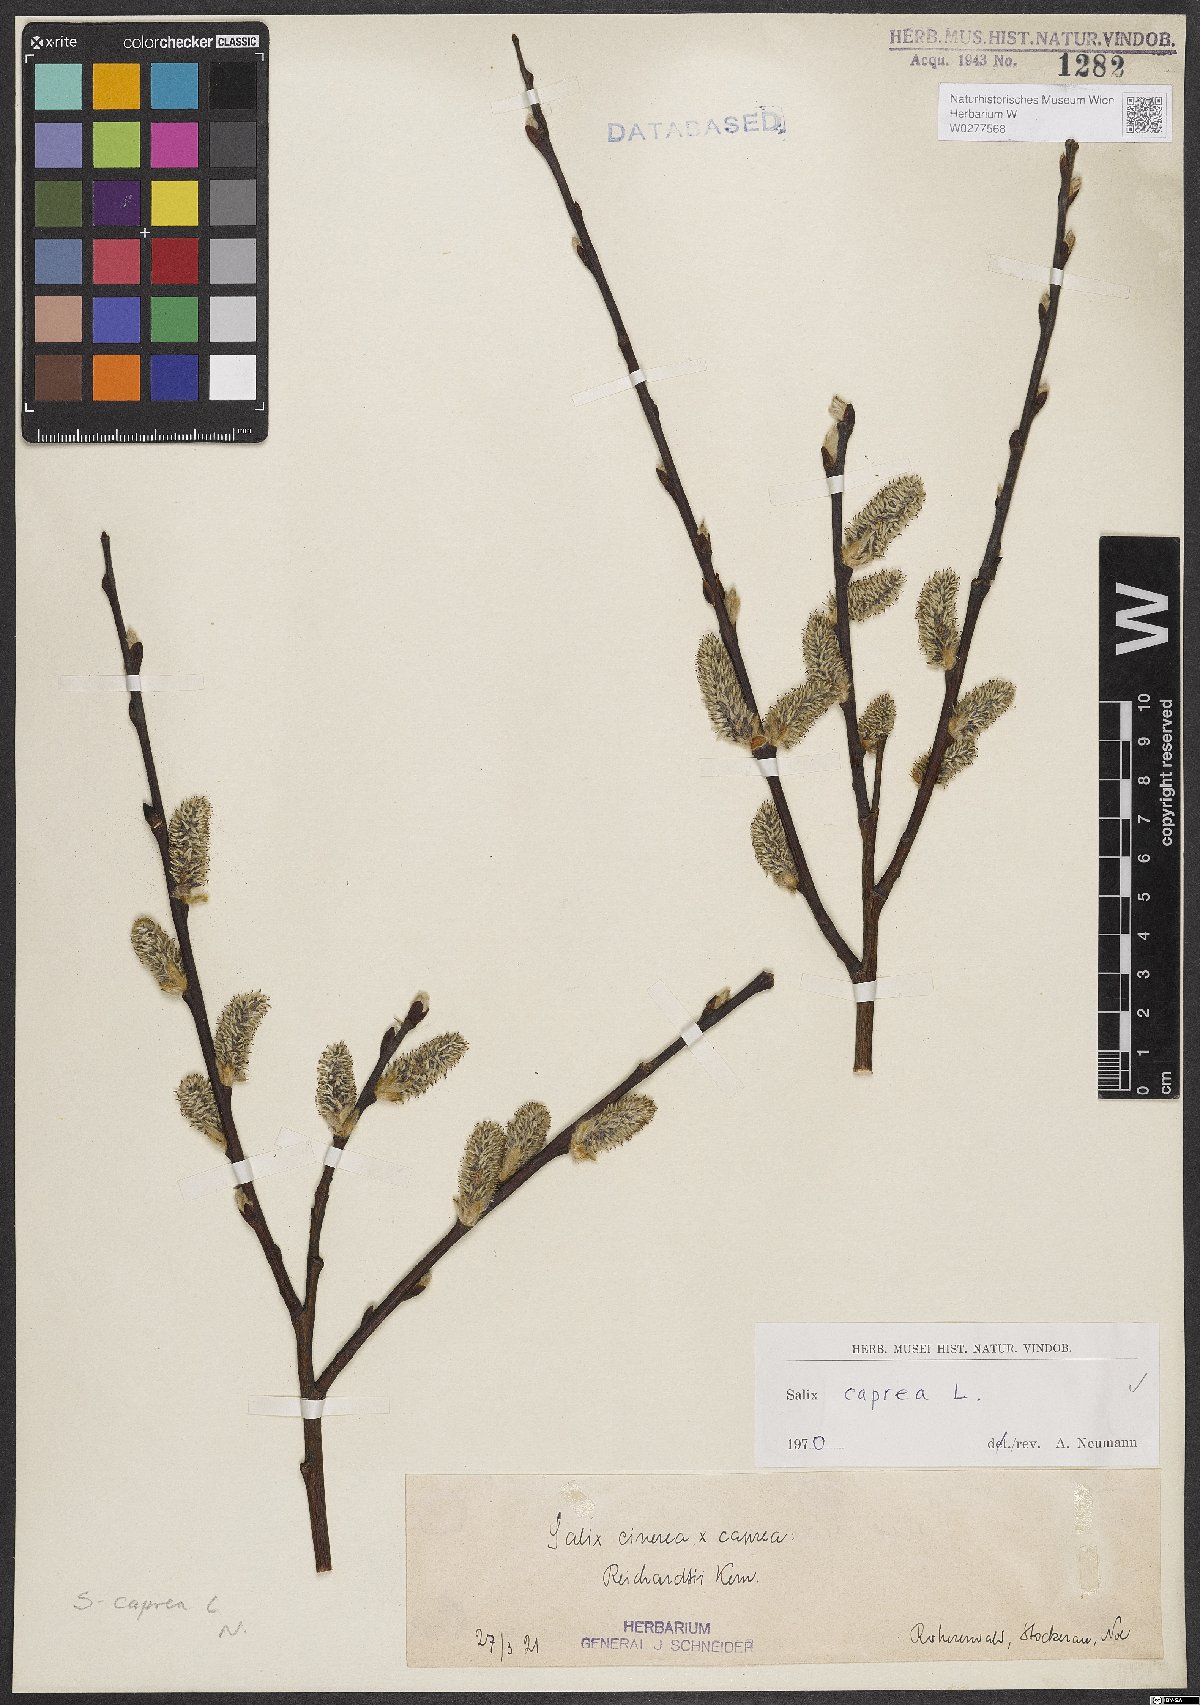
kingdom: Plantae
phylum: Tracheophyta
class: Magnoliopsida
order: Malpighiales
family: Salicaceae
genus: Salix
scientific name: Salix caprea
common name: Goat willow
